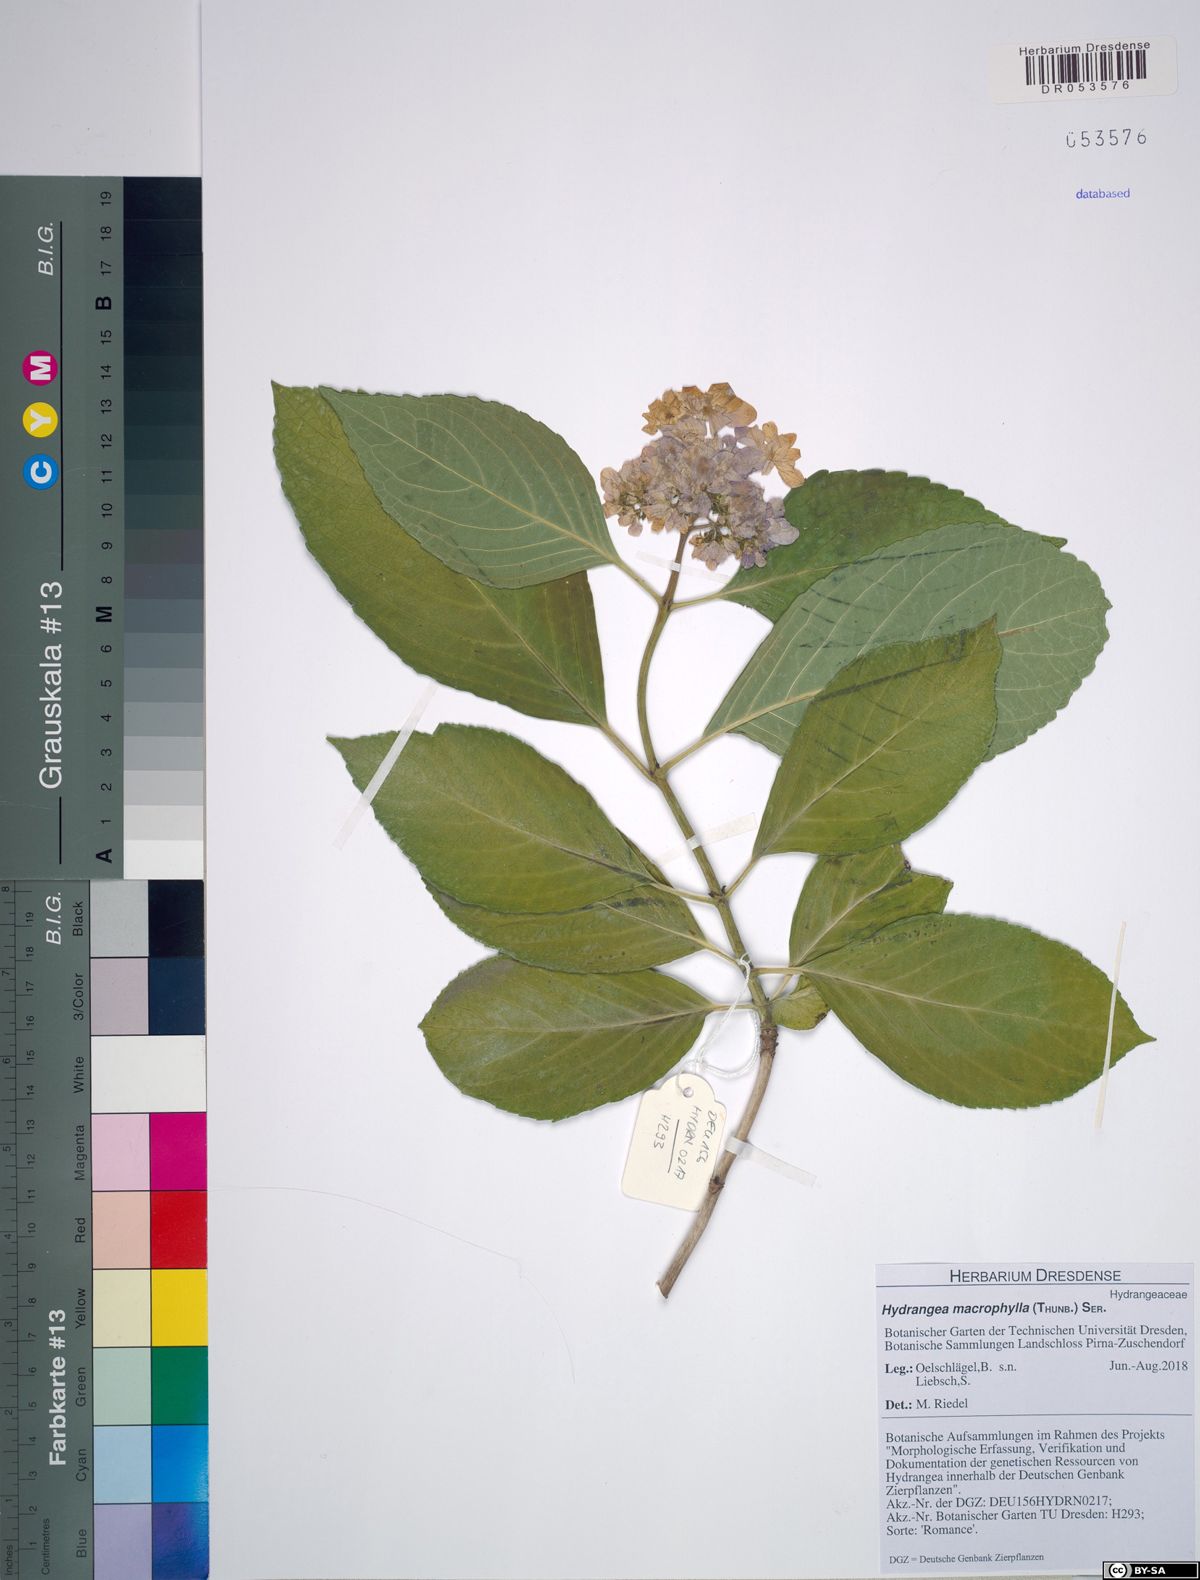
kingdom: Plantae
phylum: Tracheophyta
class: Magnoliopsida
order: Cornales
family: Hydrangeaceae
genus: Hydrangea
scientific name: Hydrangea macrophylla
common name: Hydrangea
